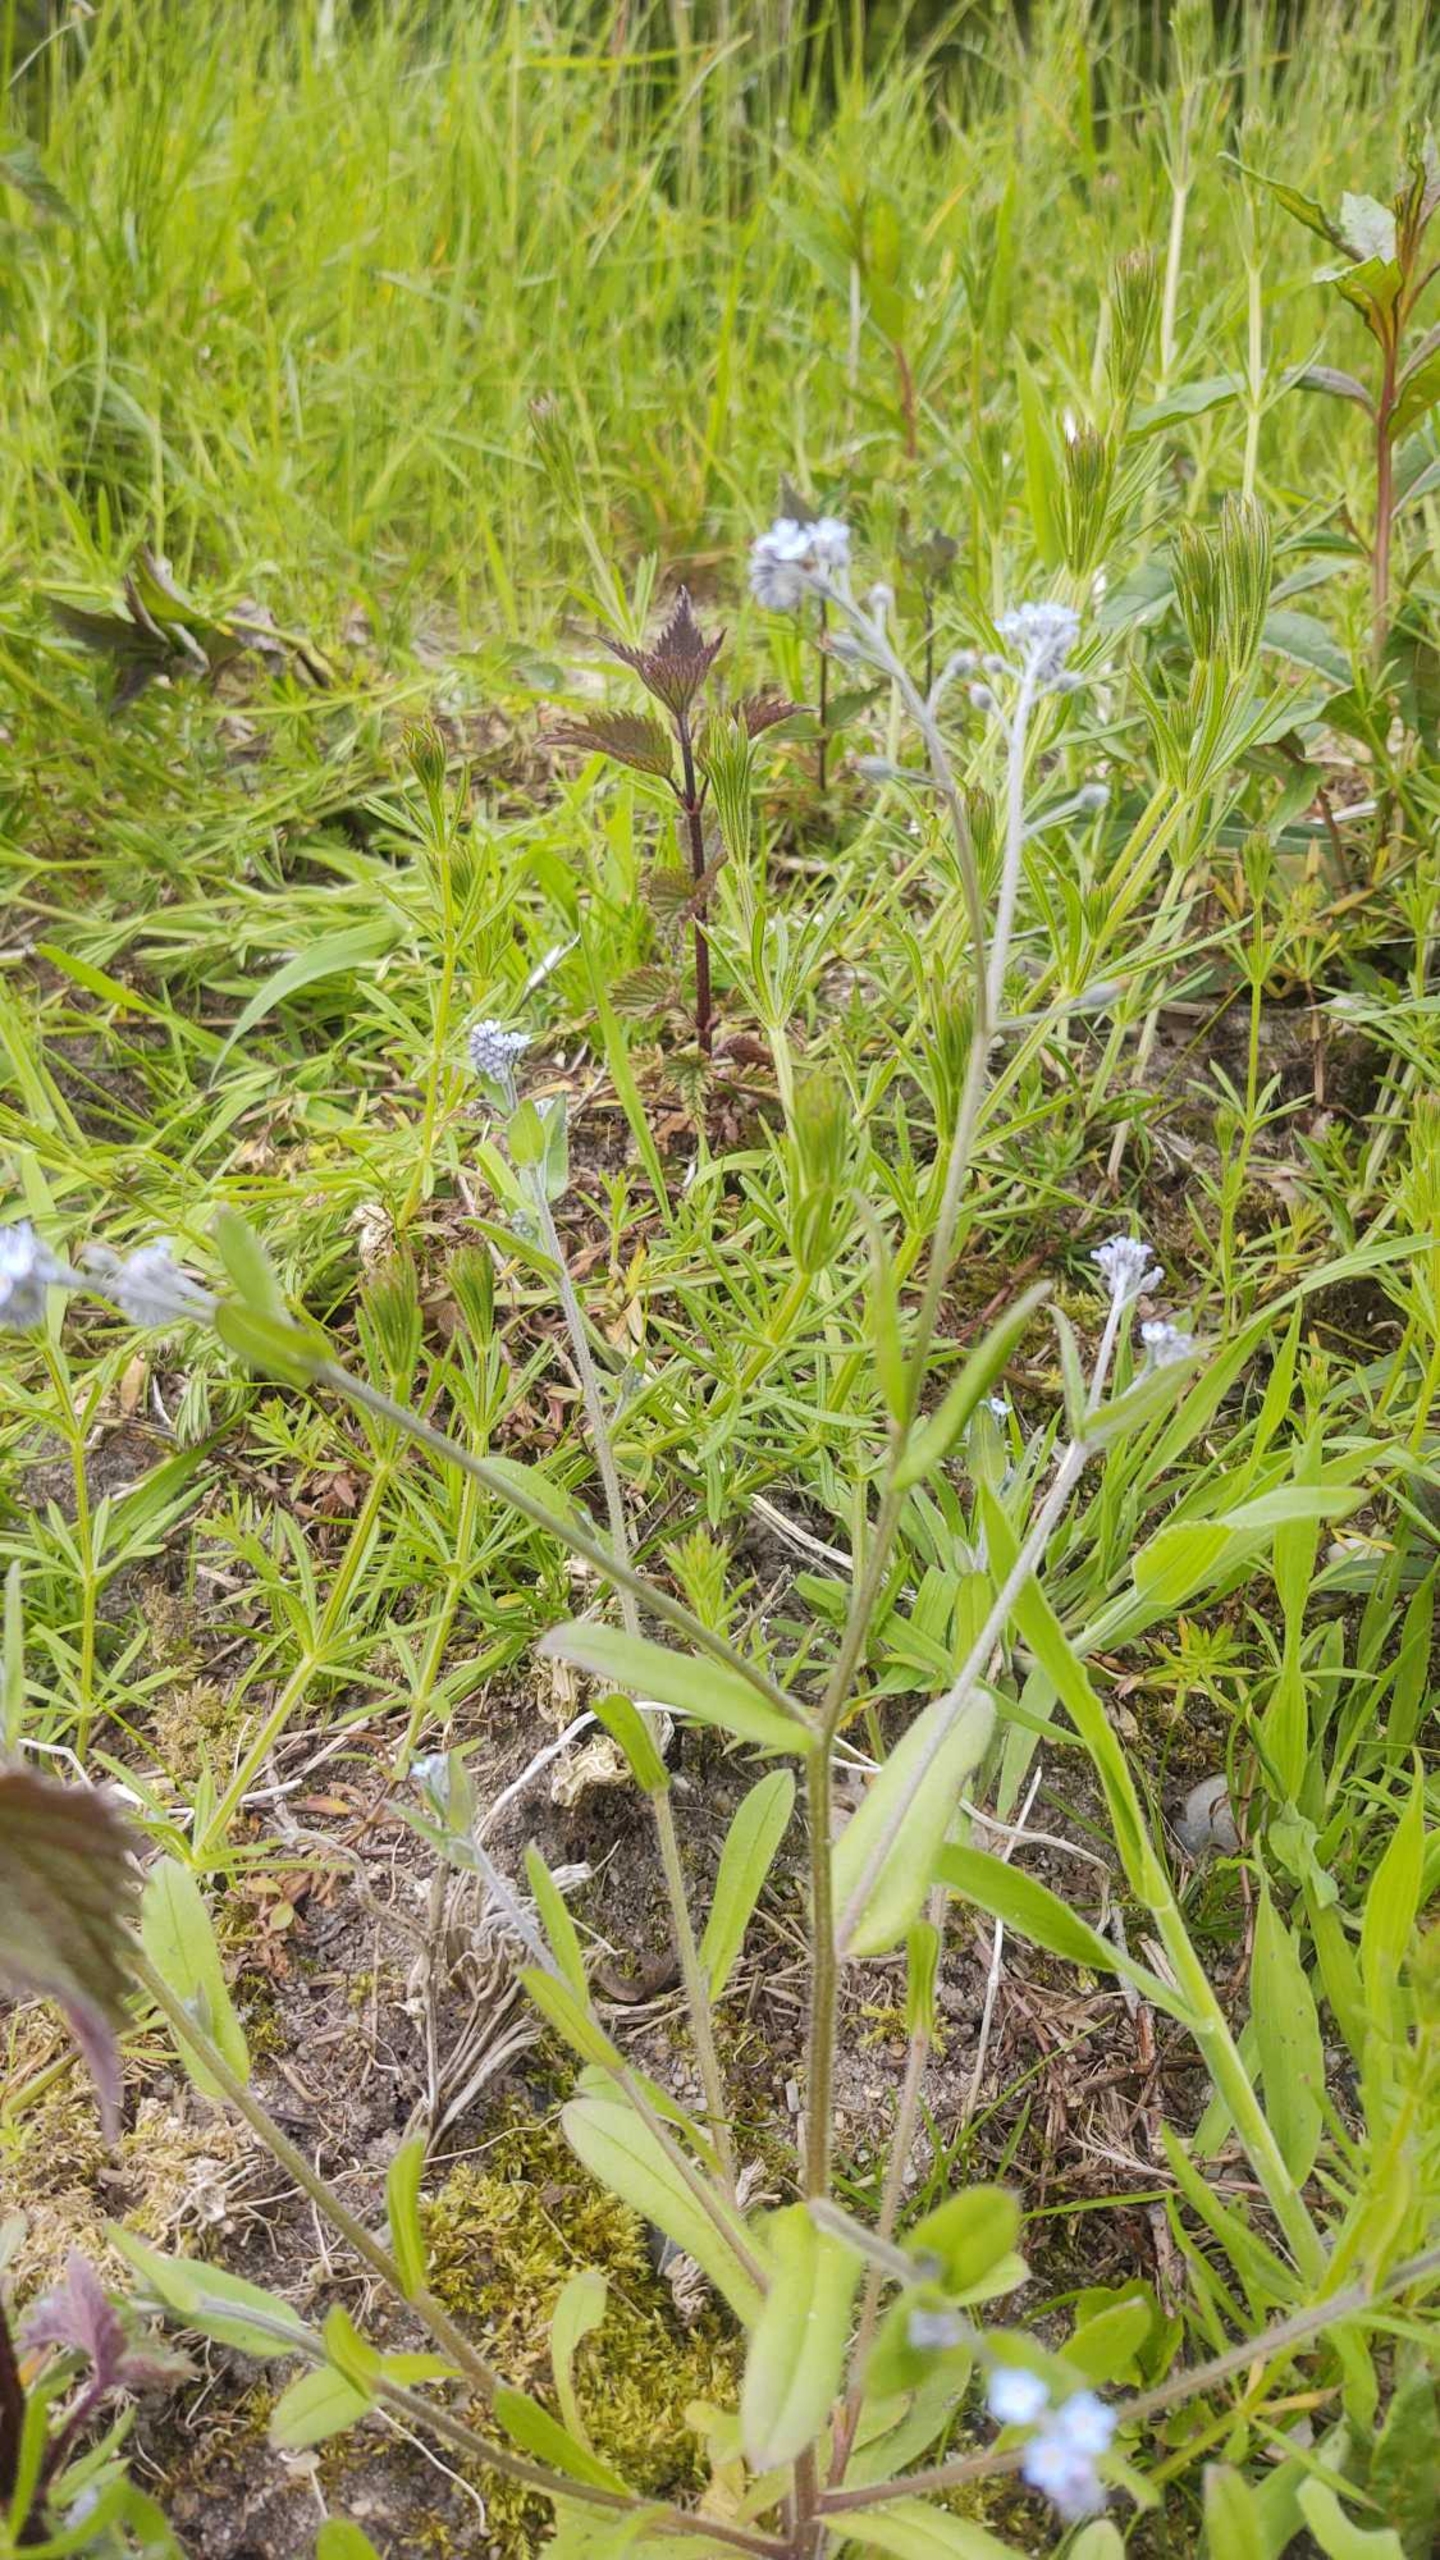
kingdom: Plantae
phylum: Tracheophyta
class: Magnoliopsida
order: Boraginales
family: Boraginaceae
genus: Myosotis
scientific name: Myosotis arvensis
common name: Mark-forglemmigej
